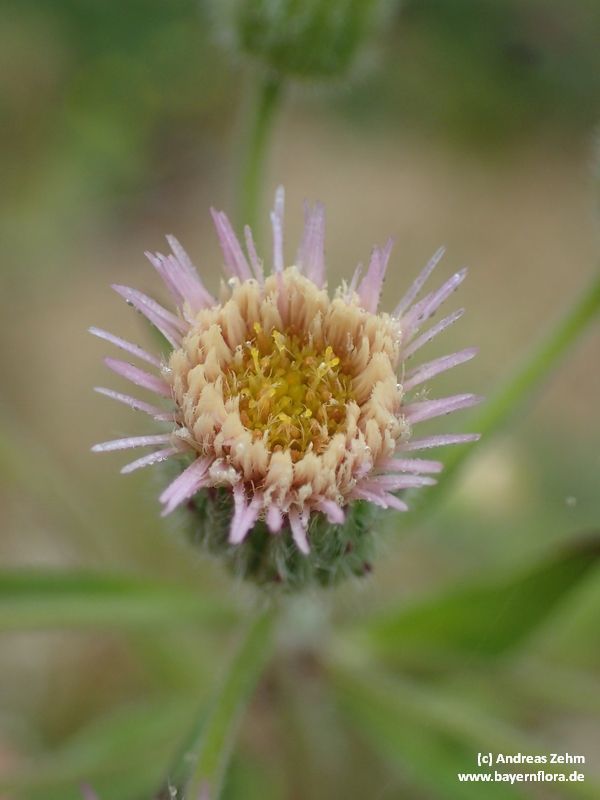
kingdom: Plantae
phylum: Tracheophyta
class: Magnoliopsida
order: Asterales
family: Asteraceae
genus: Erigeron
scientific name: Erigeron acris
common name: Blue fleabane
